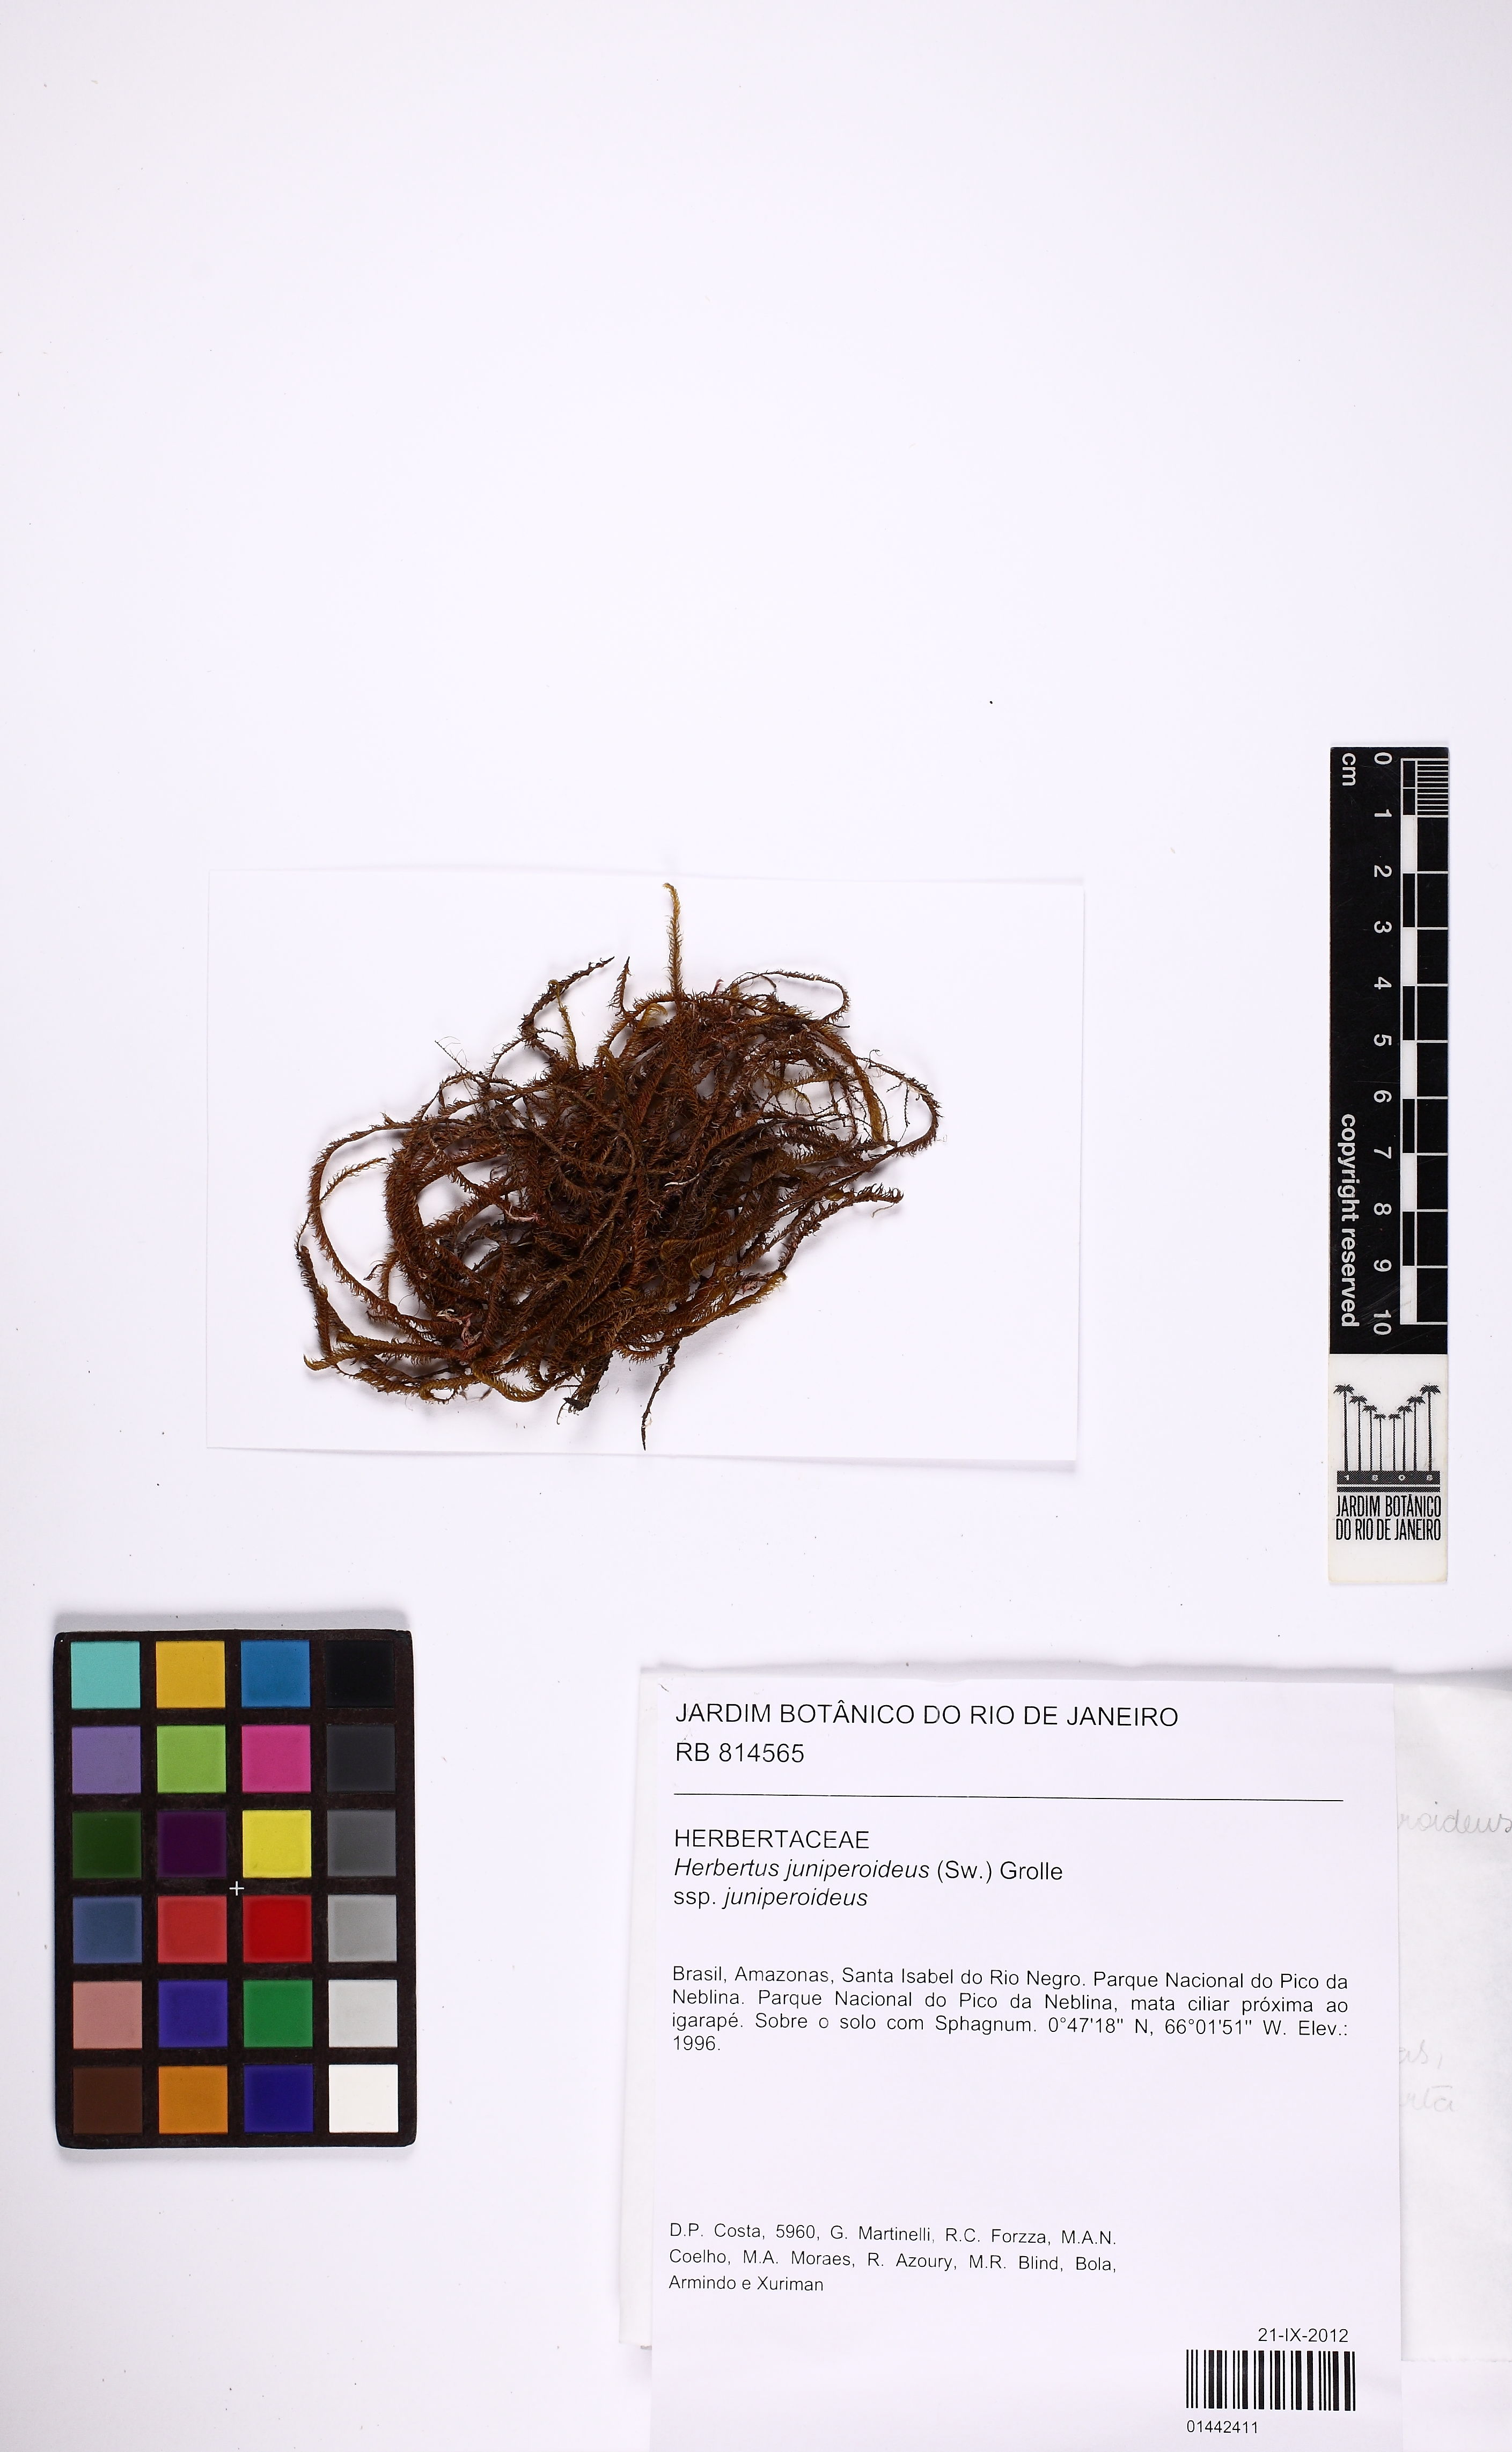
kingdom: Plantae
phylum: Marchantiophyta
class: Jungermanniopsida
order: Jungermanniales
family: Herbertaceae
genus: Herbertus
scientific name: Herbertus juniperoideus
